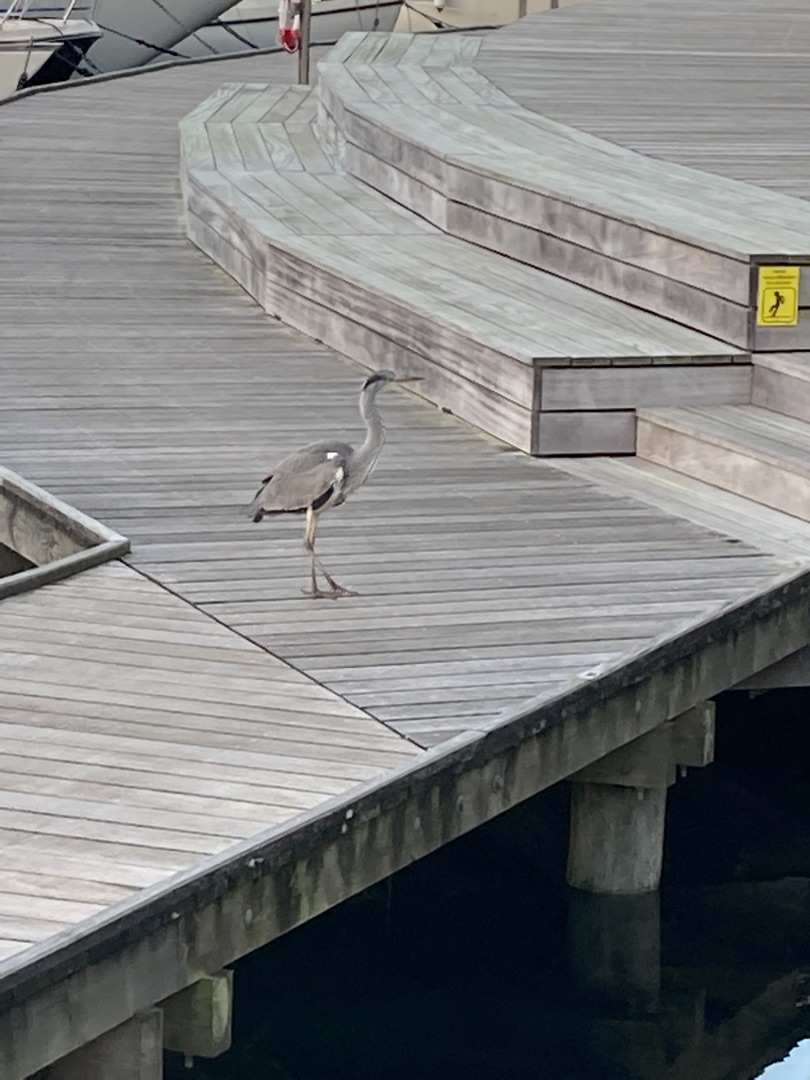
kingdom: Animalia
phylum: Chordata
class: Aves
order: Pelecaniformes
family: Ardeidae
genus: Ardea
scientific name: Ardea cinerea
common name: Fiskehejre
